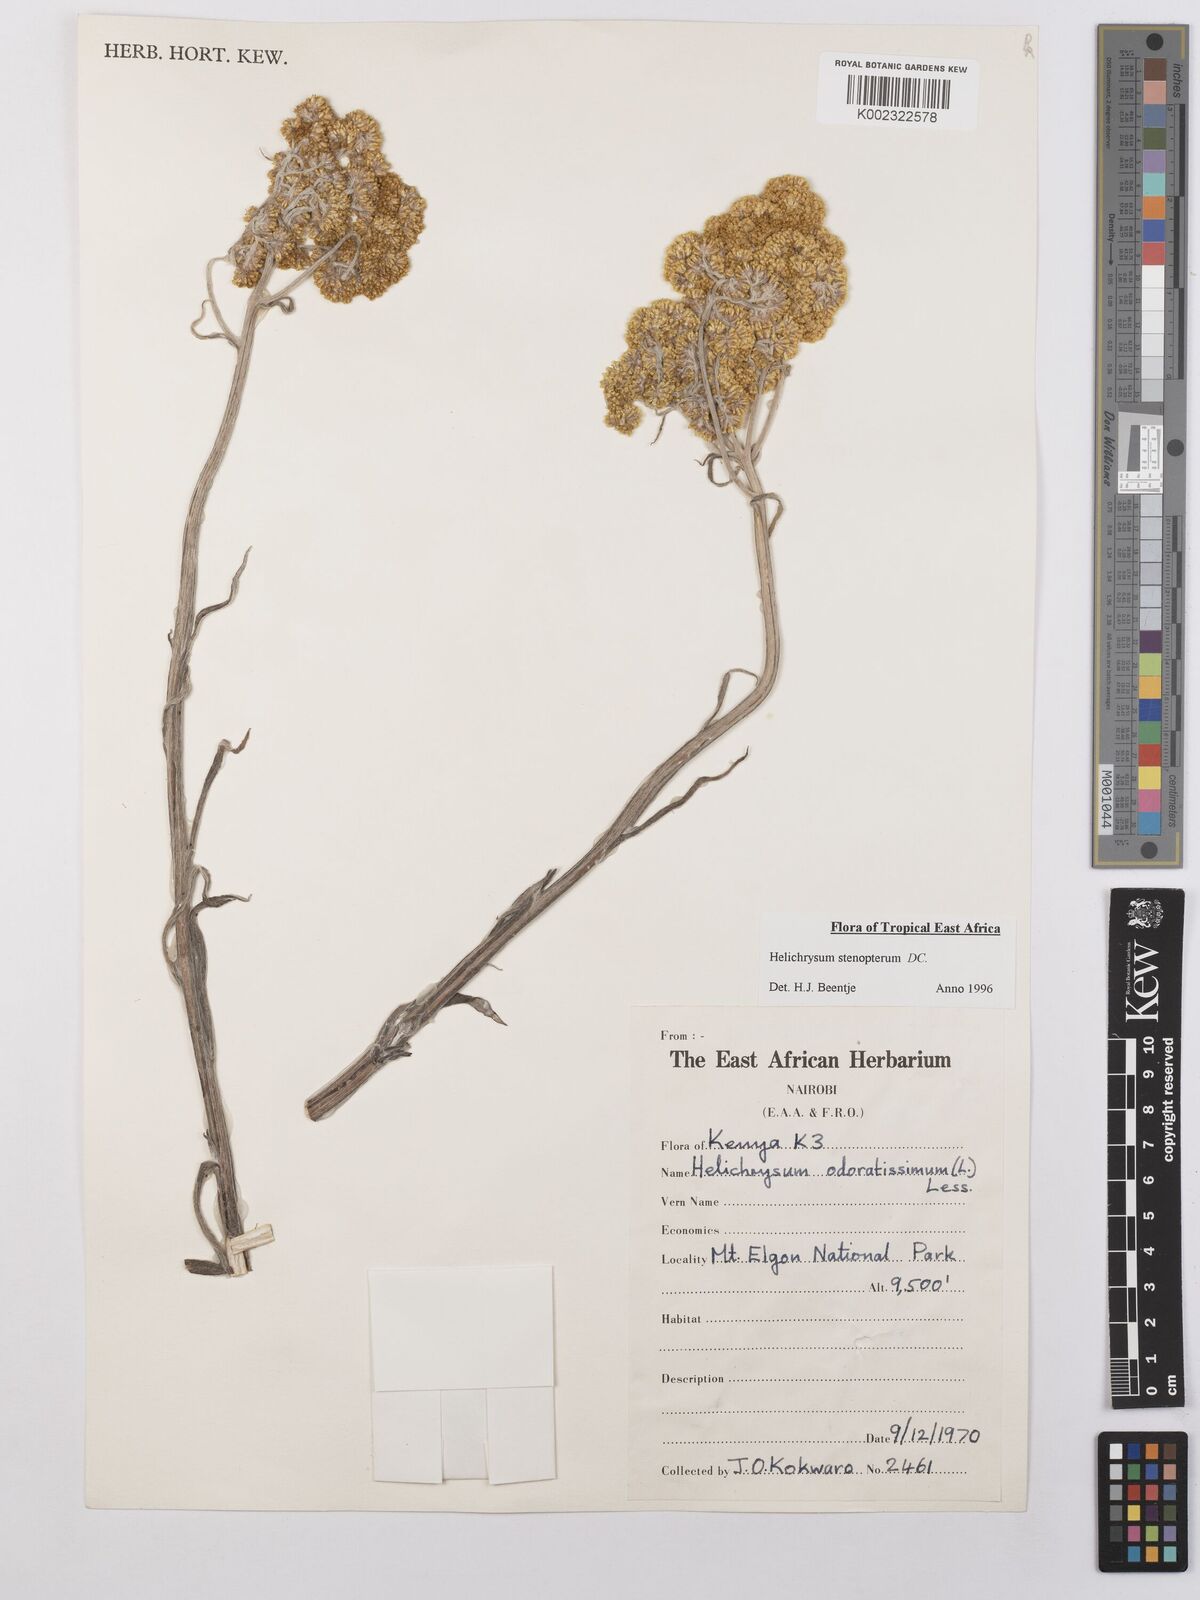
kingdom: Plantae
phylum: Tracheophyta
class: Magnoliopsida
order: Asterales
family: Asteraceae
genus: Helichrysum
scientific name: Helichrysum stenopterum
